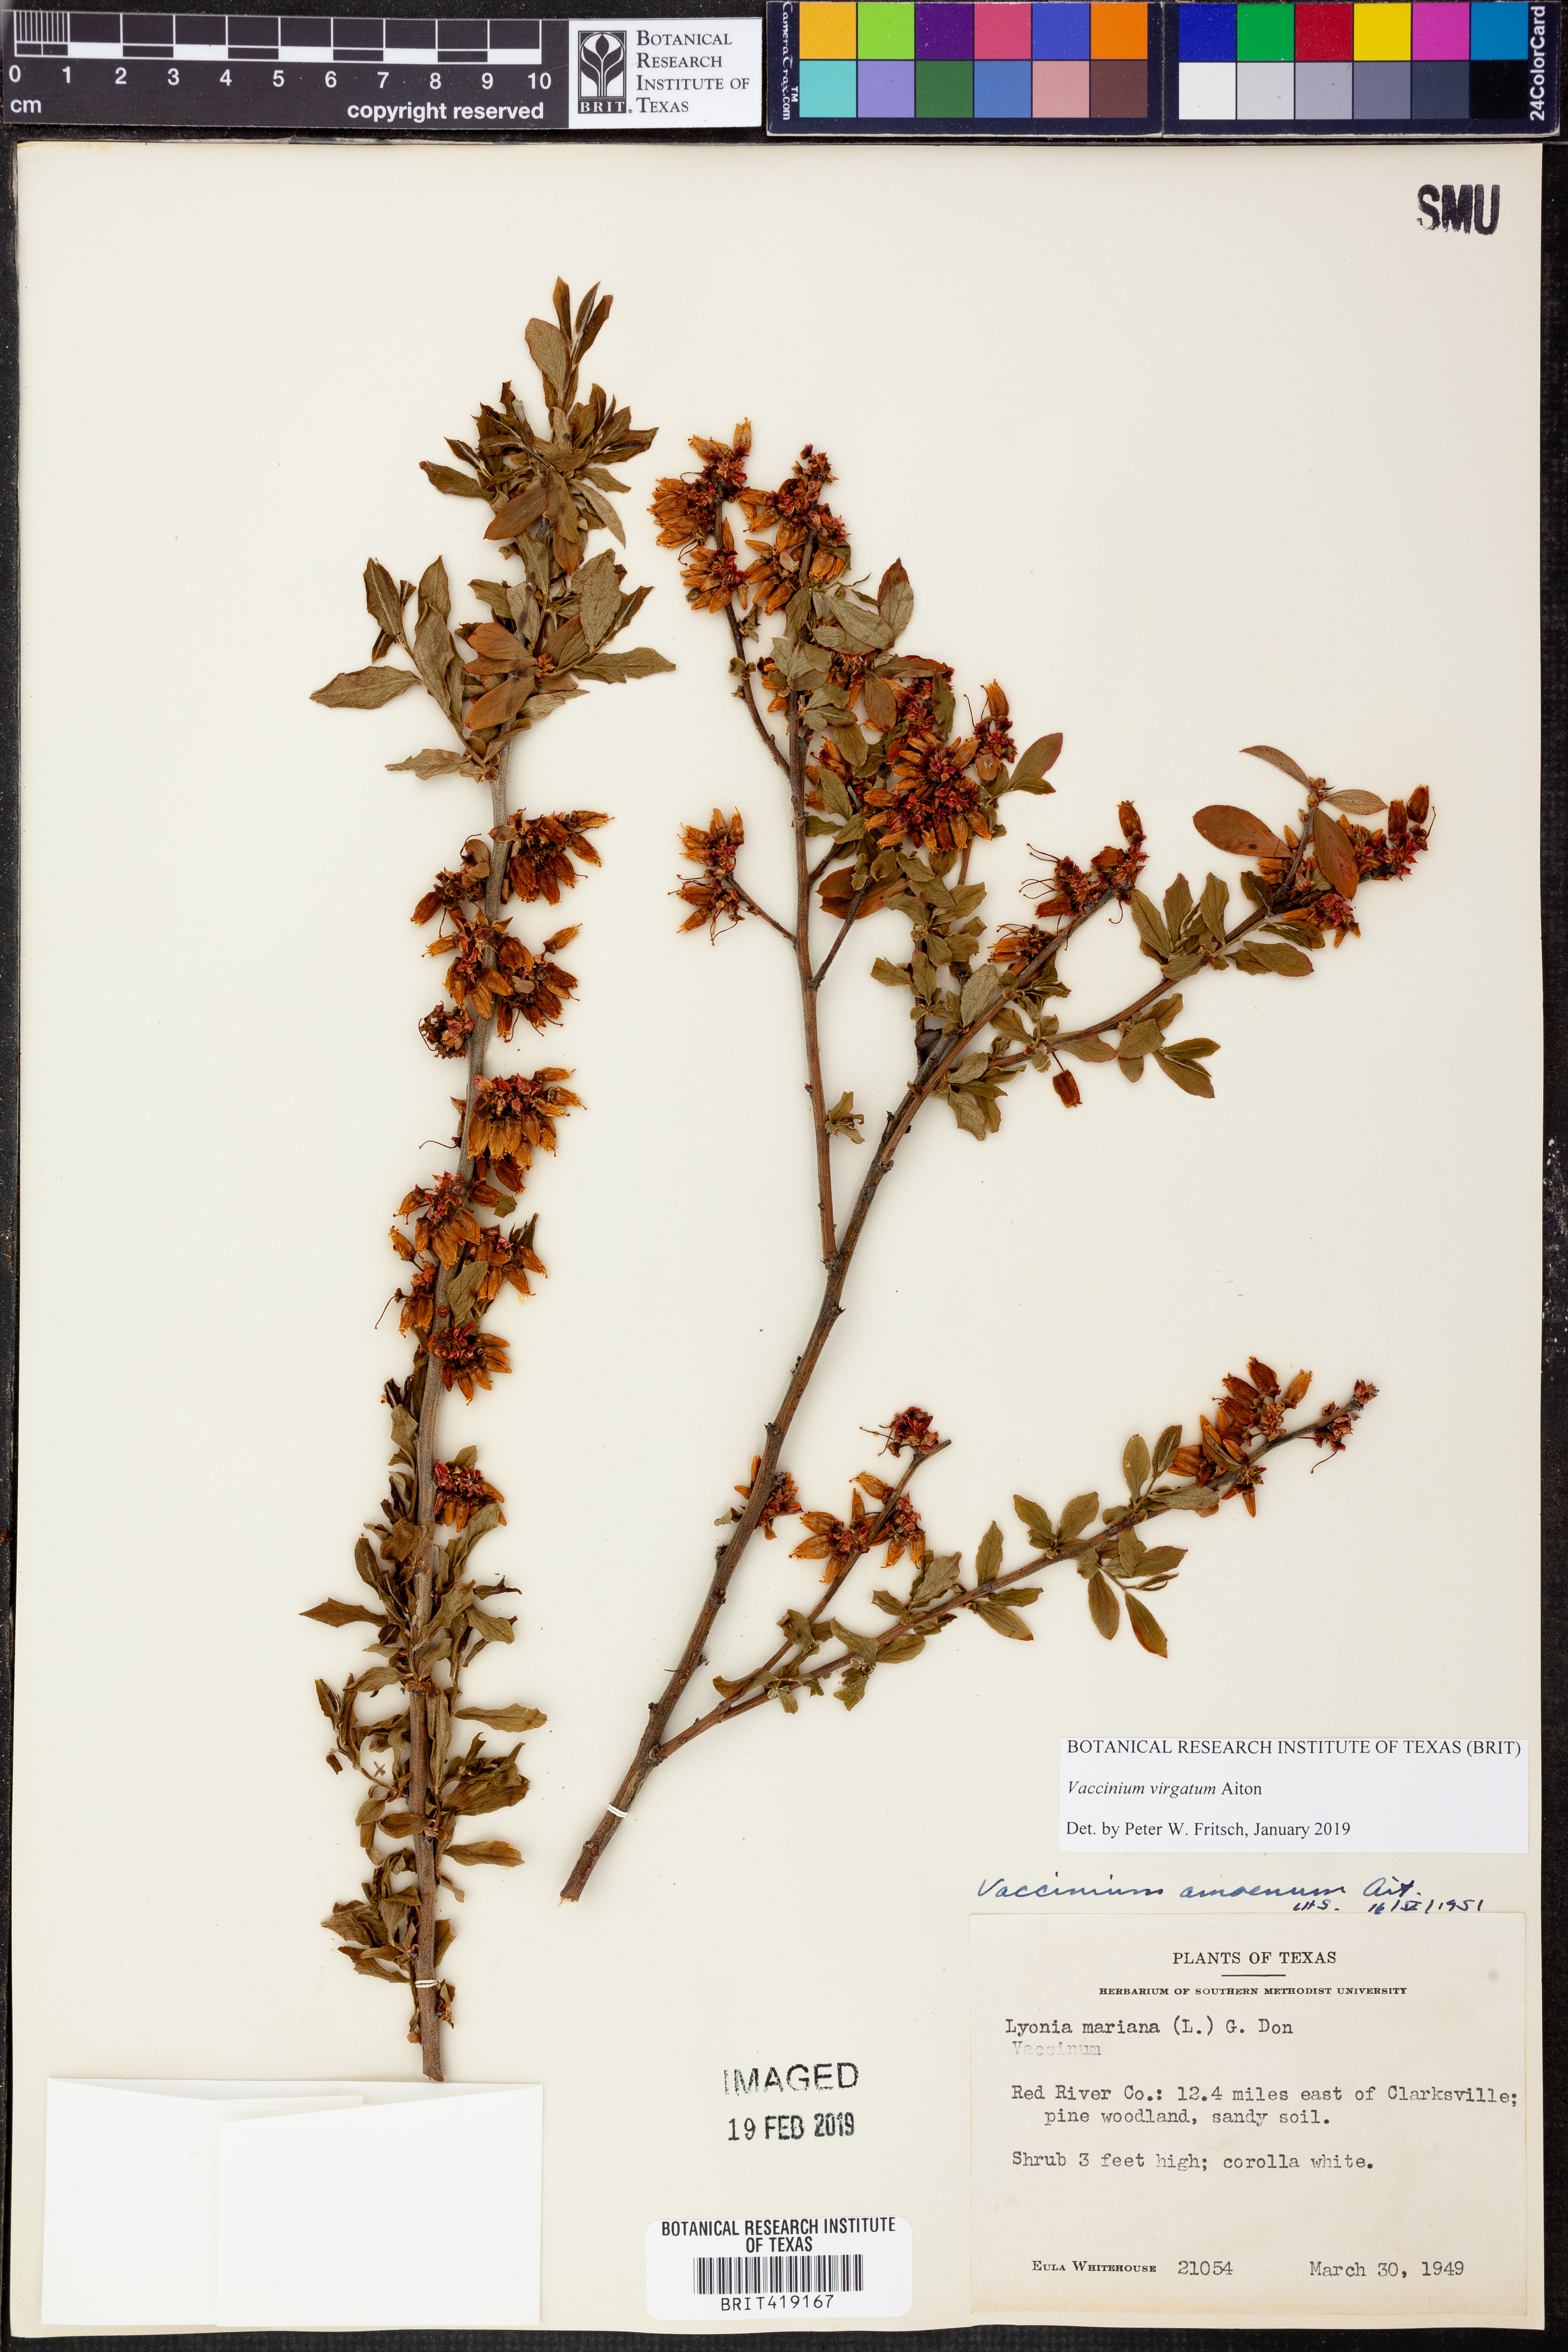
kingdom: Plantae
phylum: Tracheophyta
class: Magnoliopsida
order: Ericales
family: Ericaceae
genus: Vaccinium
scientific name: Vaccinium corymbosum
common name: Blueberry
